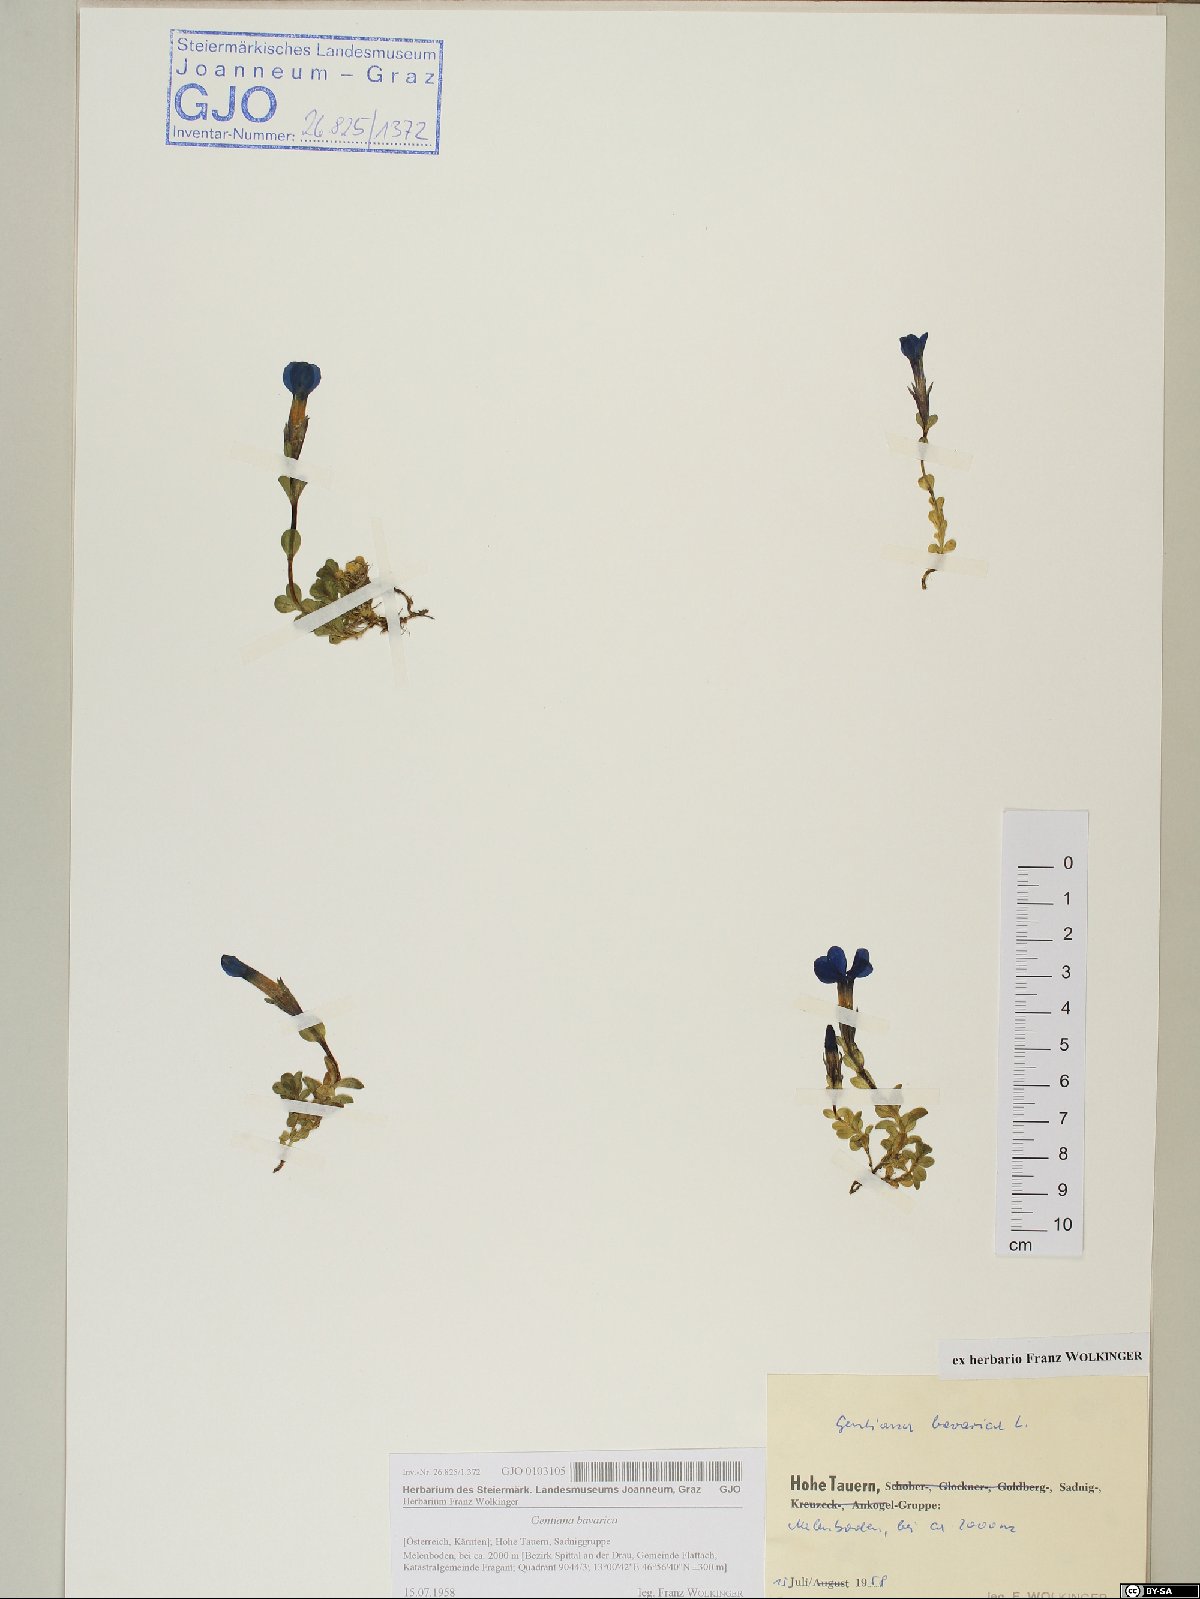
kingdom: Plantae
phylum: Tracheophyta
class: Magnoliopsida
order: Gentianales
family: Gentianaceae
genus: Gentiana
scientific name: Gentiana bavarica
